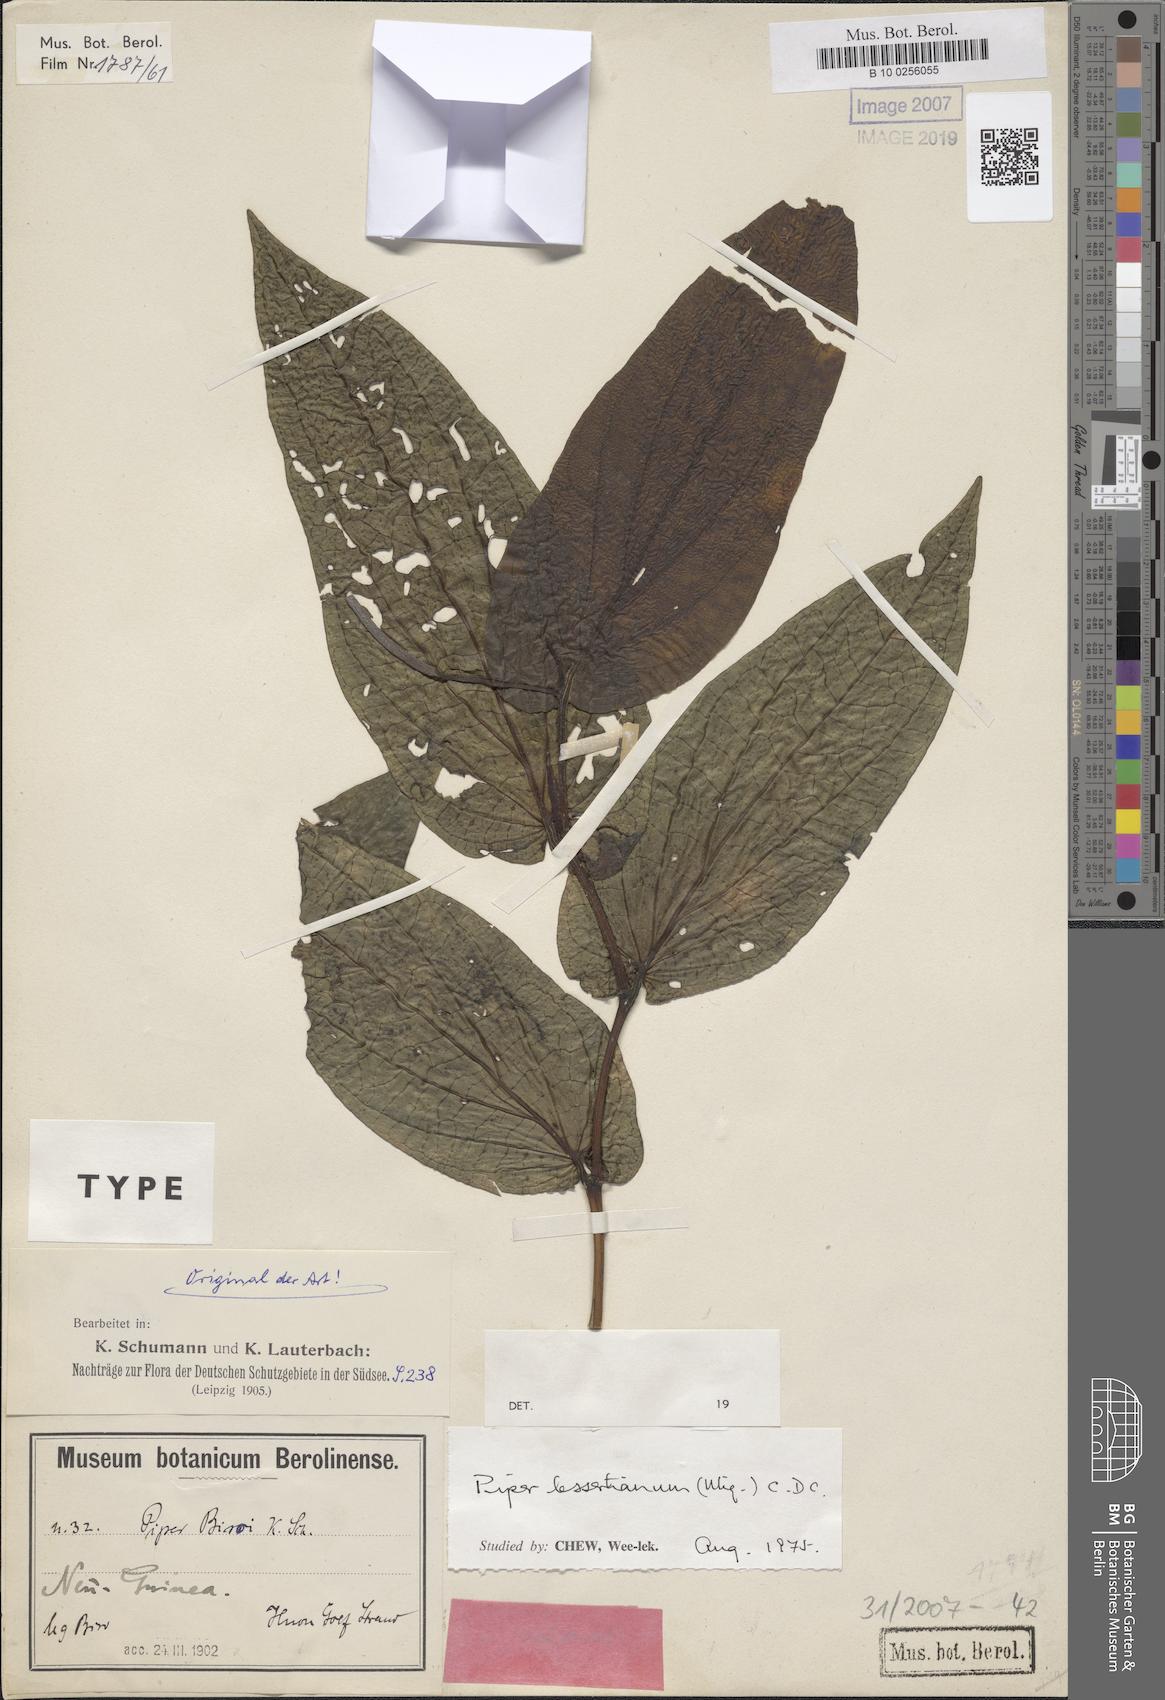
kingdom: Plantae
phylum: Tracheophyta
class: Magnoliopsida
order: Piperales
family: Piperaceae
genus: Piper
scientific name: Piper lessertianum
